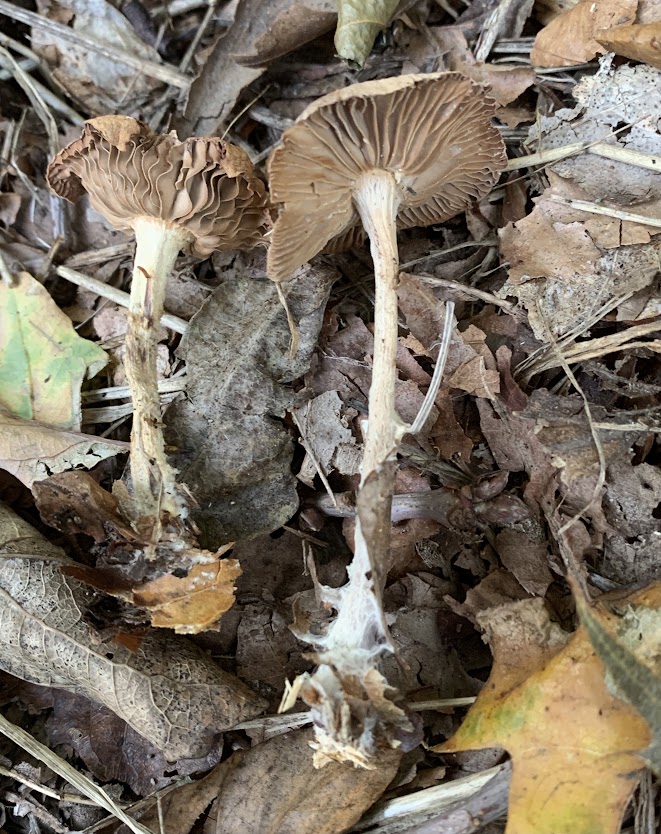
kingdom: Fungi
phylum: Basidiomycota
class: Agaricomycetes
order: Agaricales
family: Omphalotaceae
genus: Collybiopsis
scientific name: Collybiopsis peronata
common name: bestøvlet fladhat
